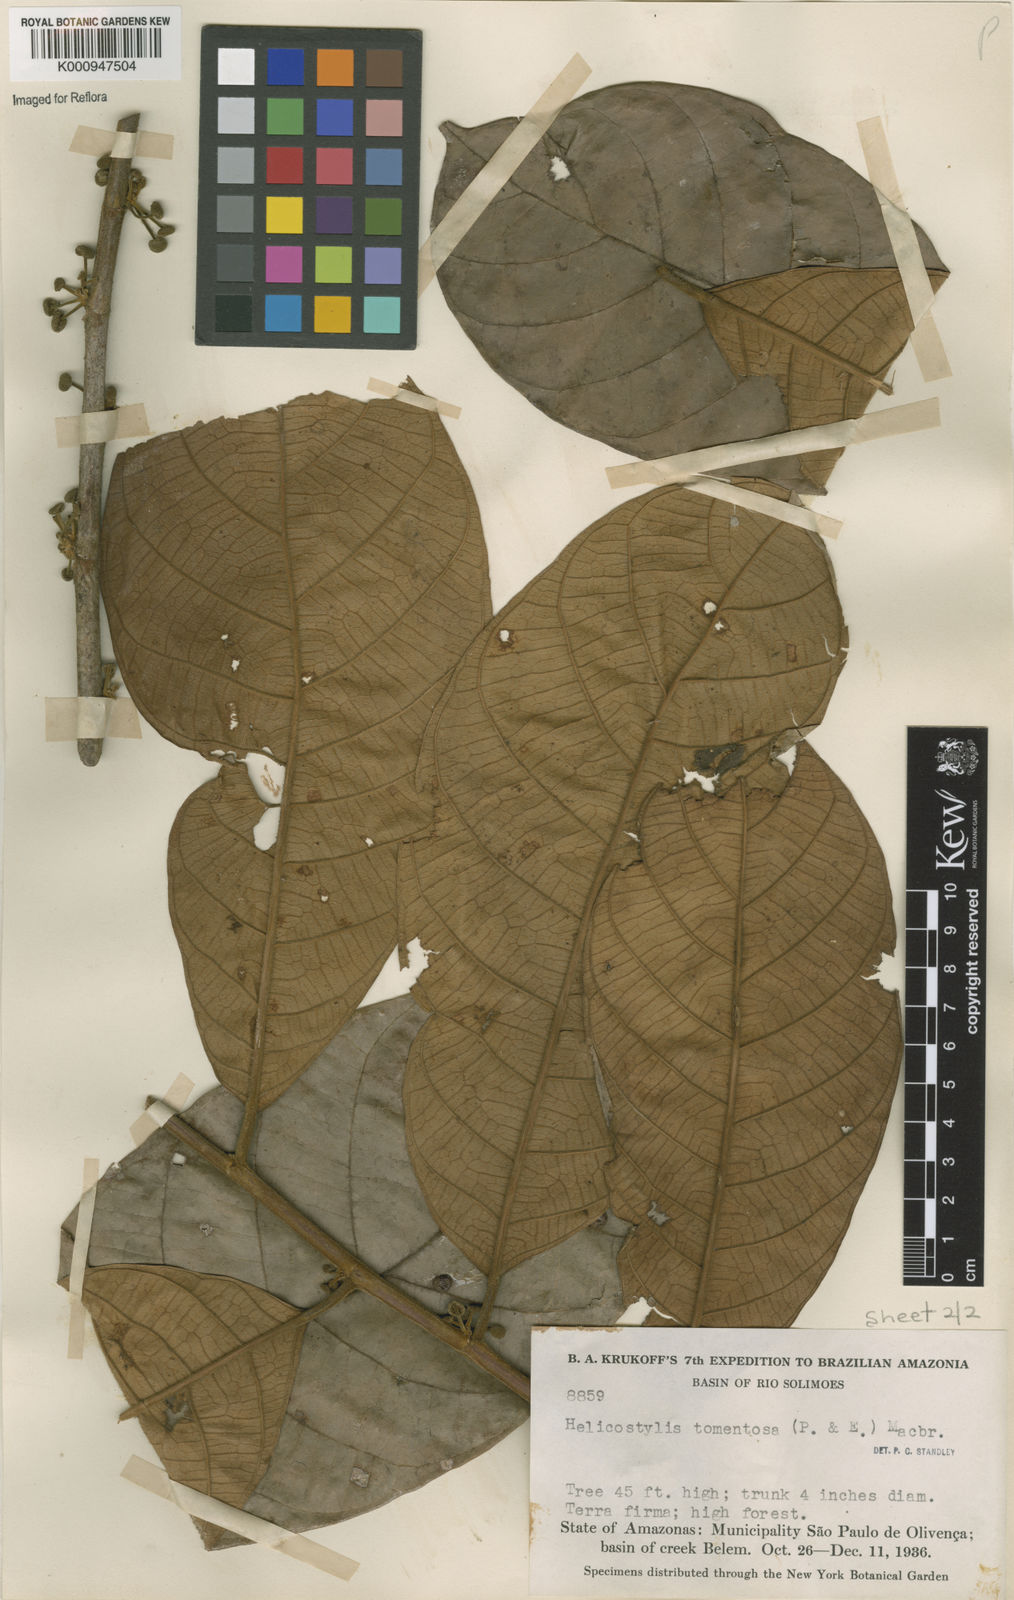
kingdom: Plantae
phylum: Tracheophyta
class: Magnoliopsida
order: Rosales
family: Moraceae
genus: Helicostylis
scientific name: Helicostylis
